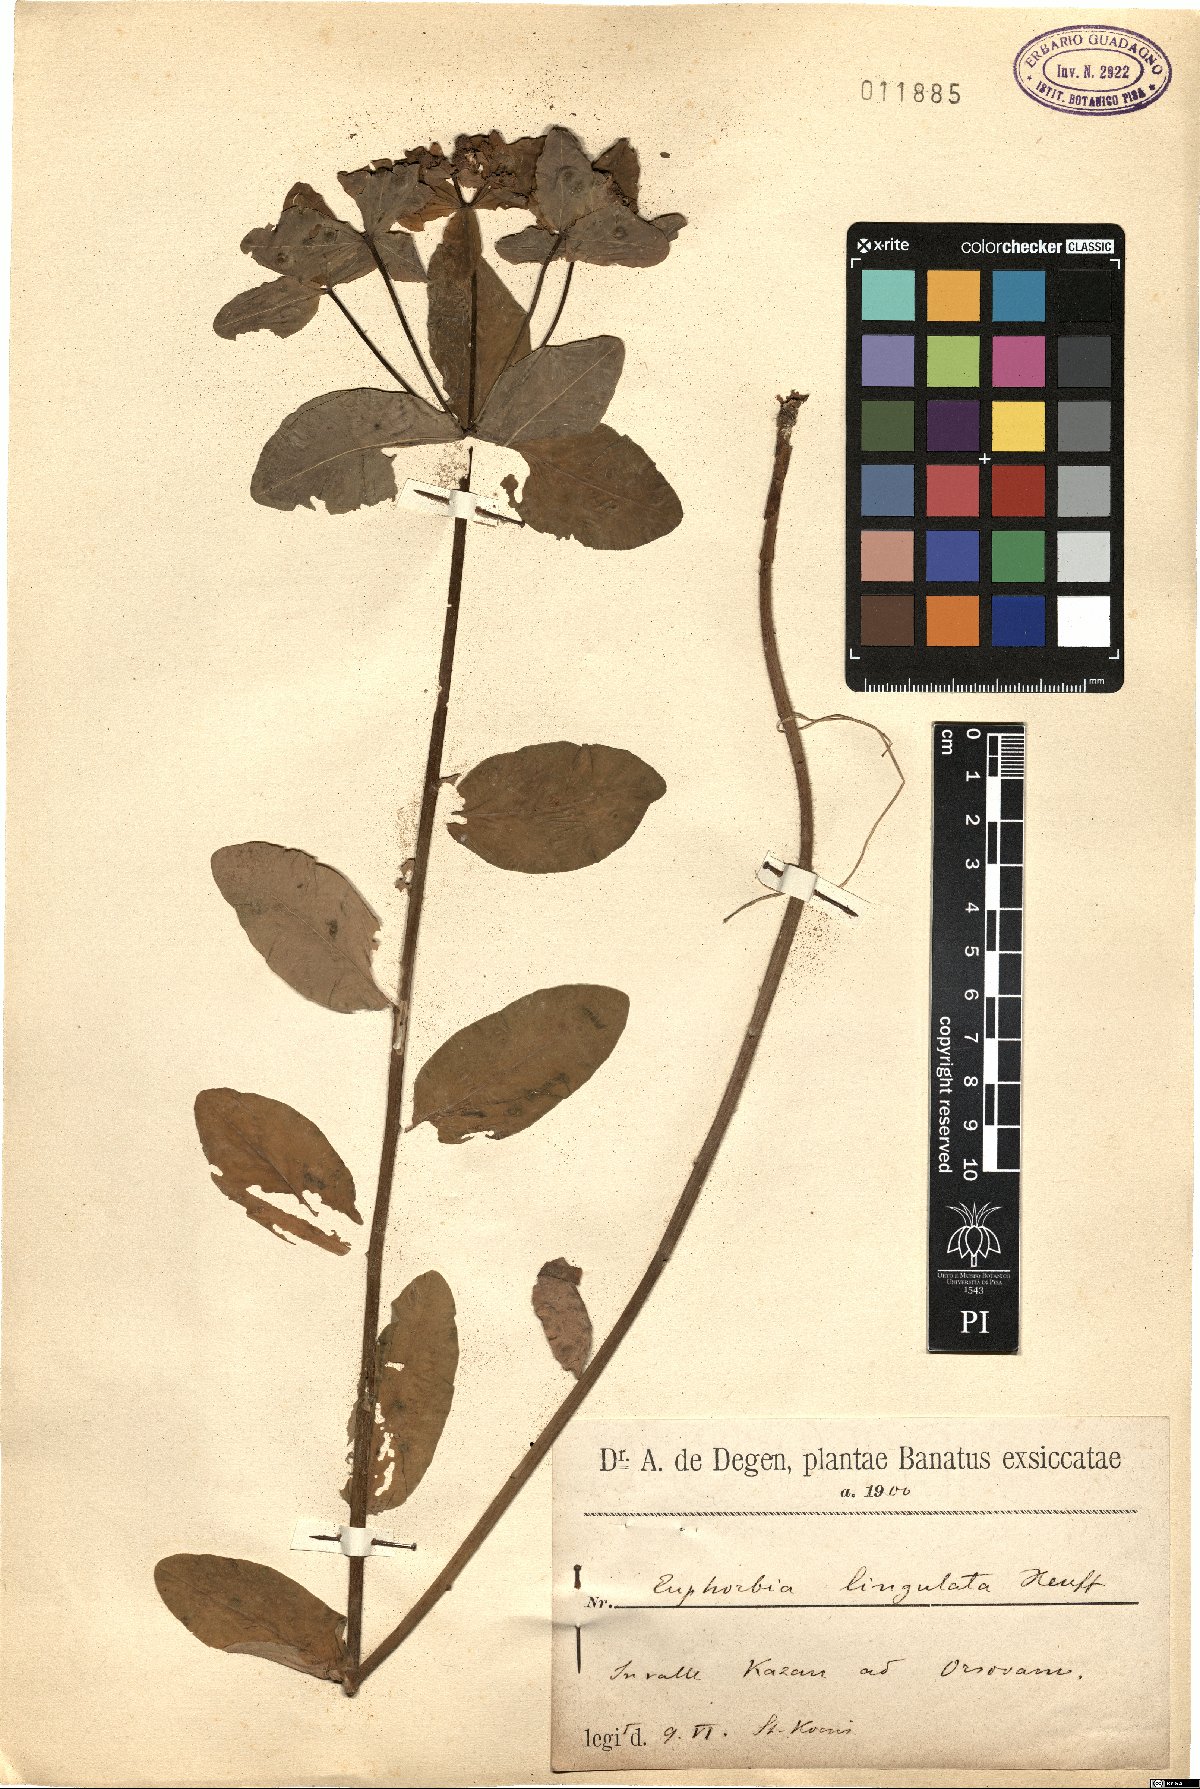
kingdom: Plantae
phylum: Tracheophyta
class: Magnoliopsida
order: Malpighiales
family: Euphorbiaceae
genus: Euphorbia
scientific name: Euphorbia epithymoides
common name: Cushion spurge
